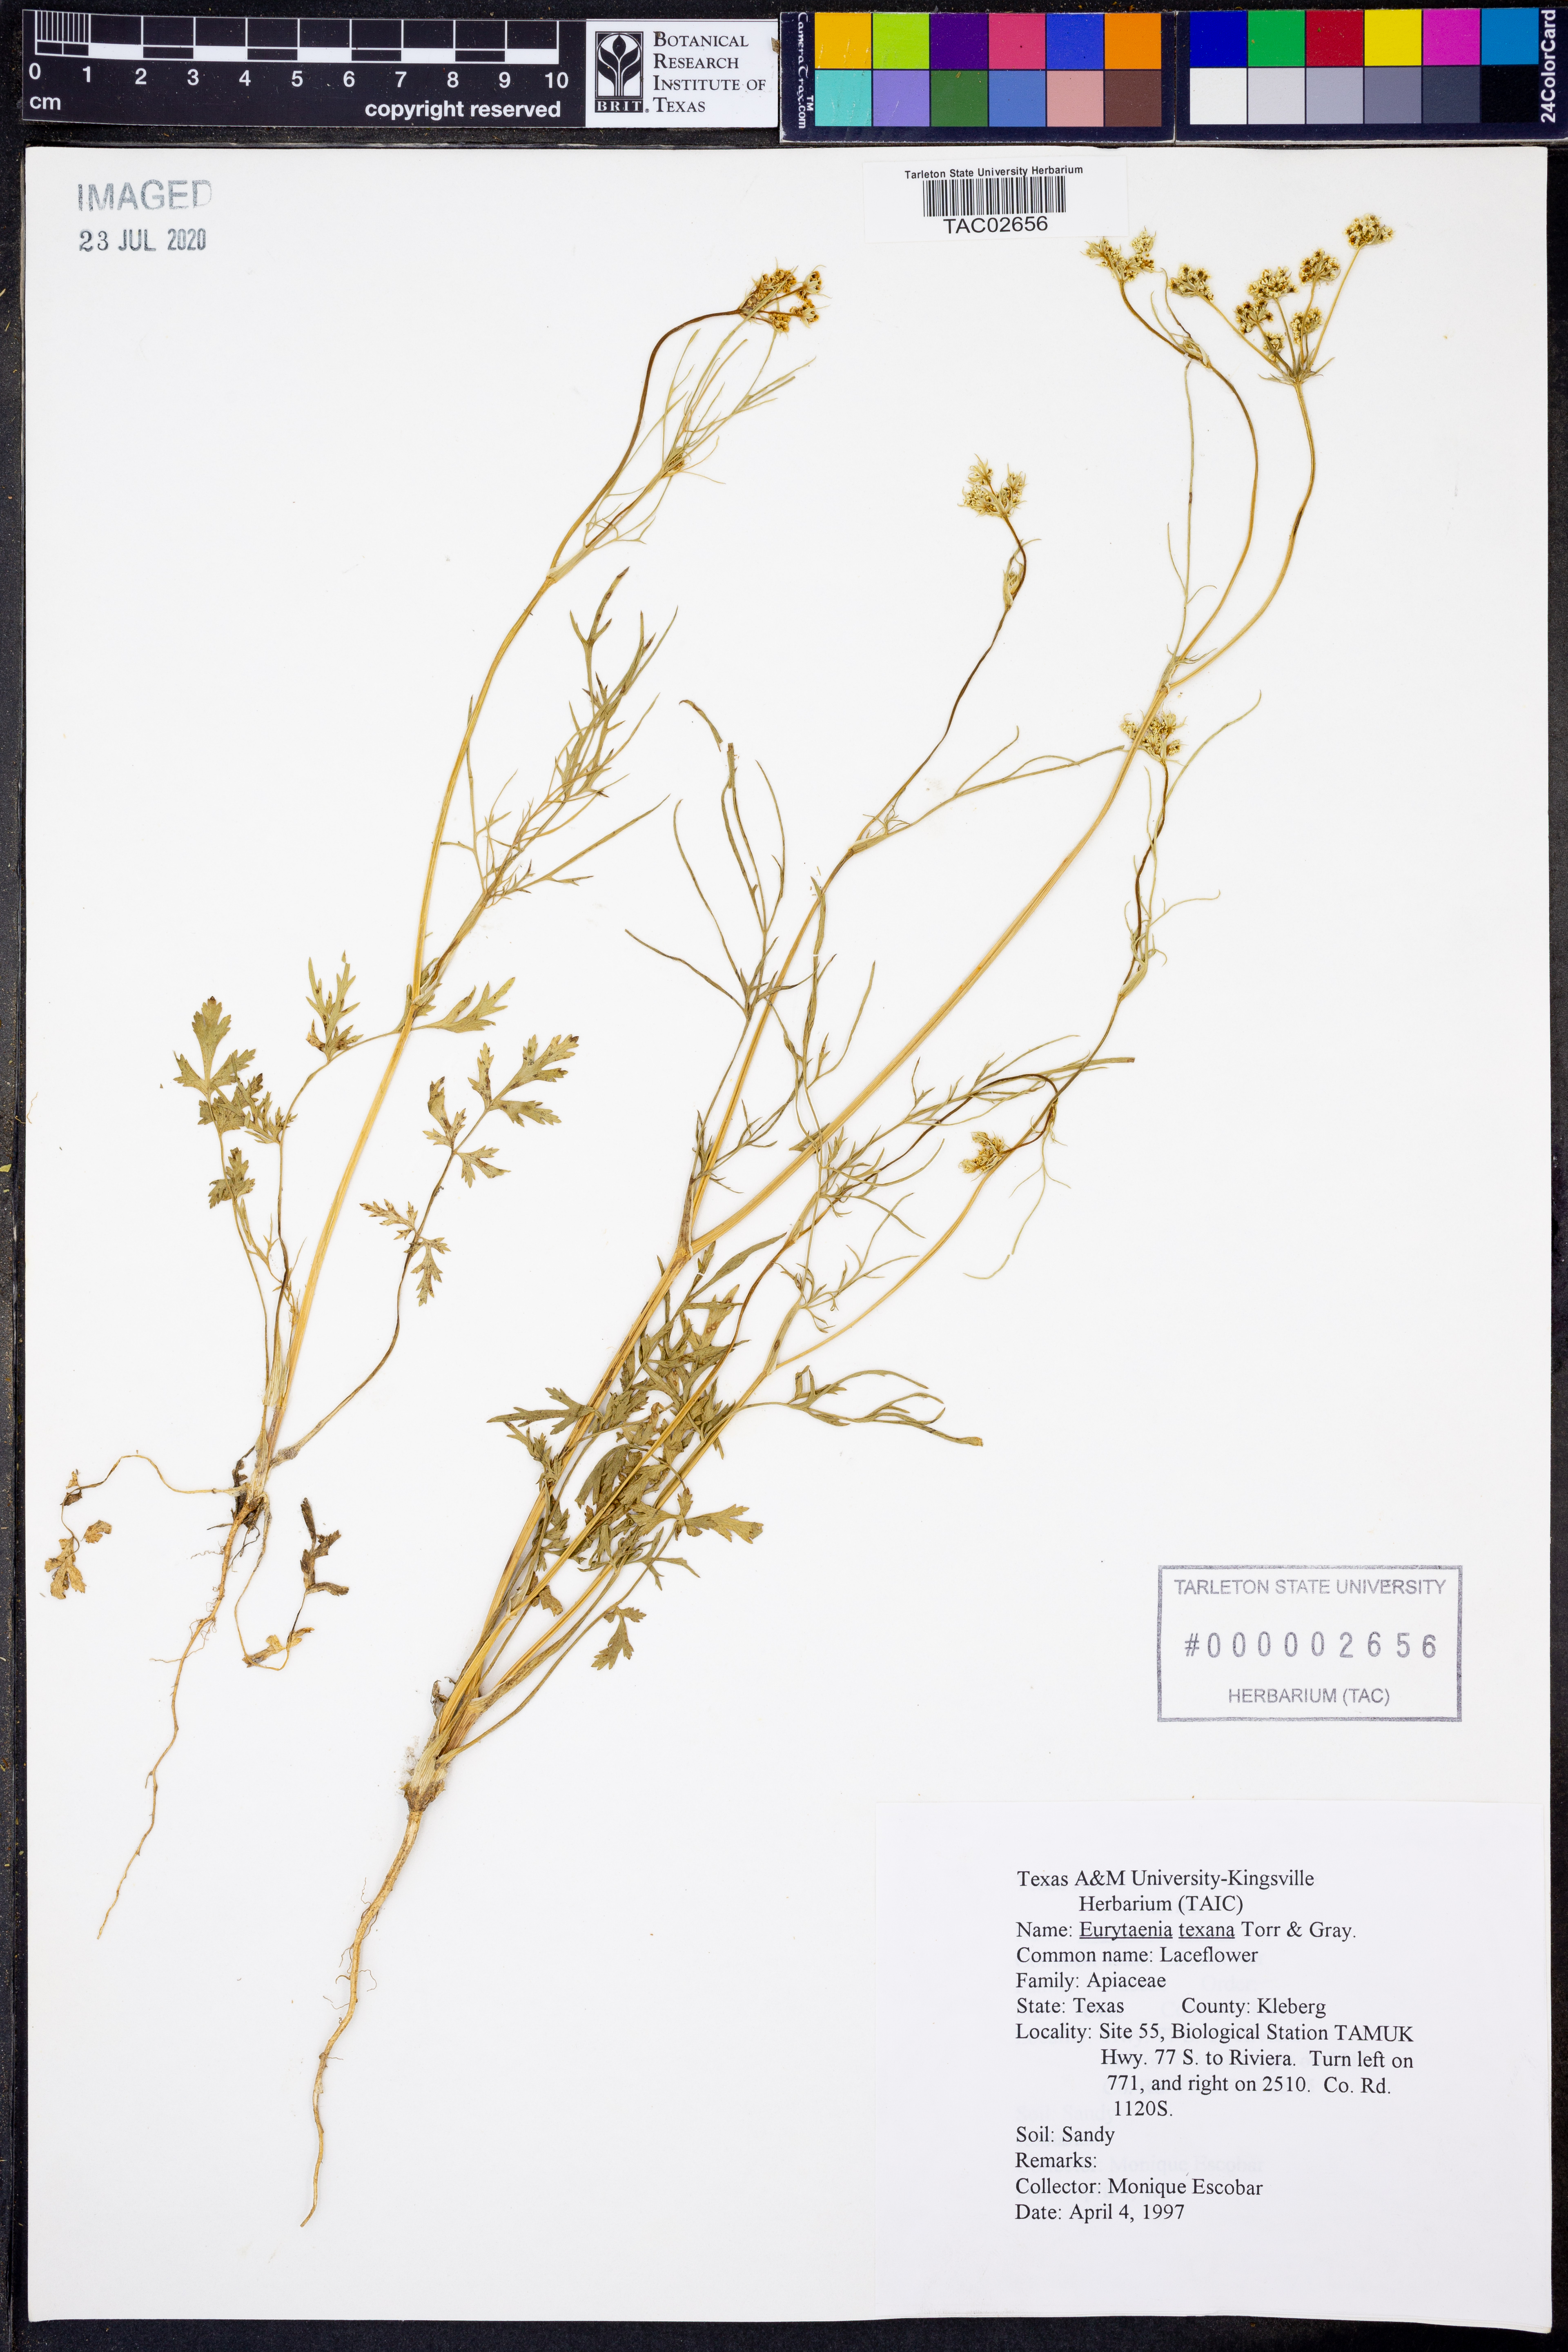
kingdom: Plantae
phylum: Tracheophyta
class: Magnoliopsida
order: Apiales
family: Apiaceae
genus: Eurytaenia
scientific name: Eurytaenia texana
